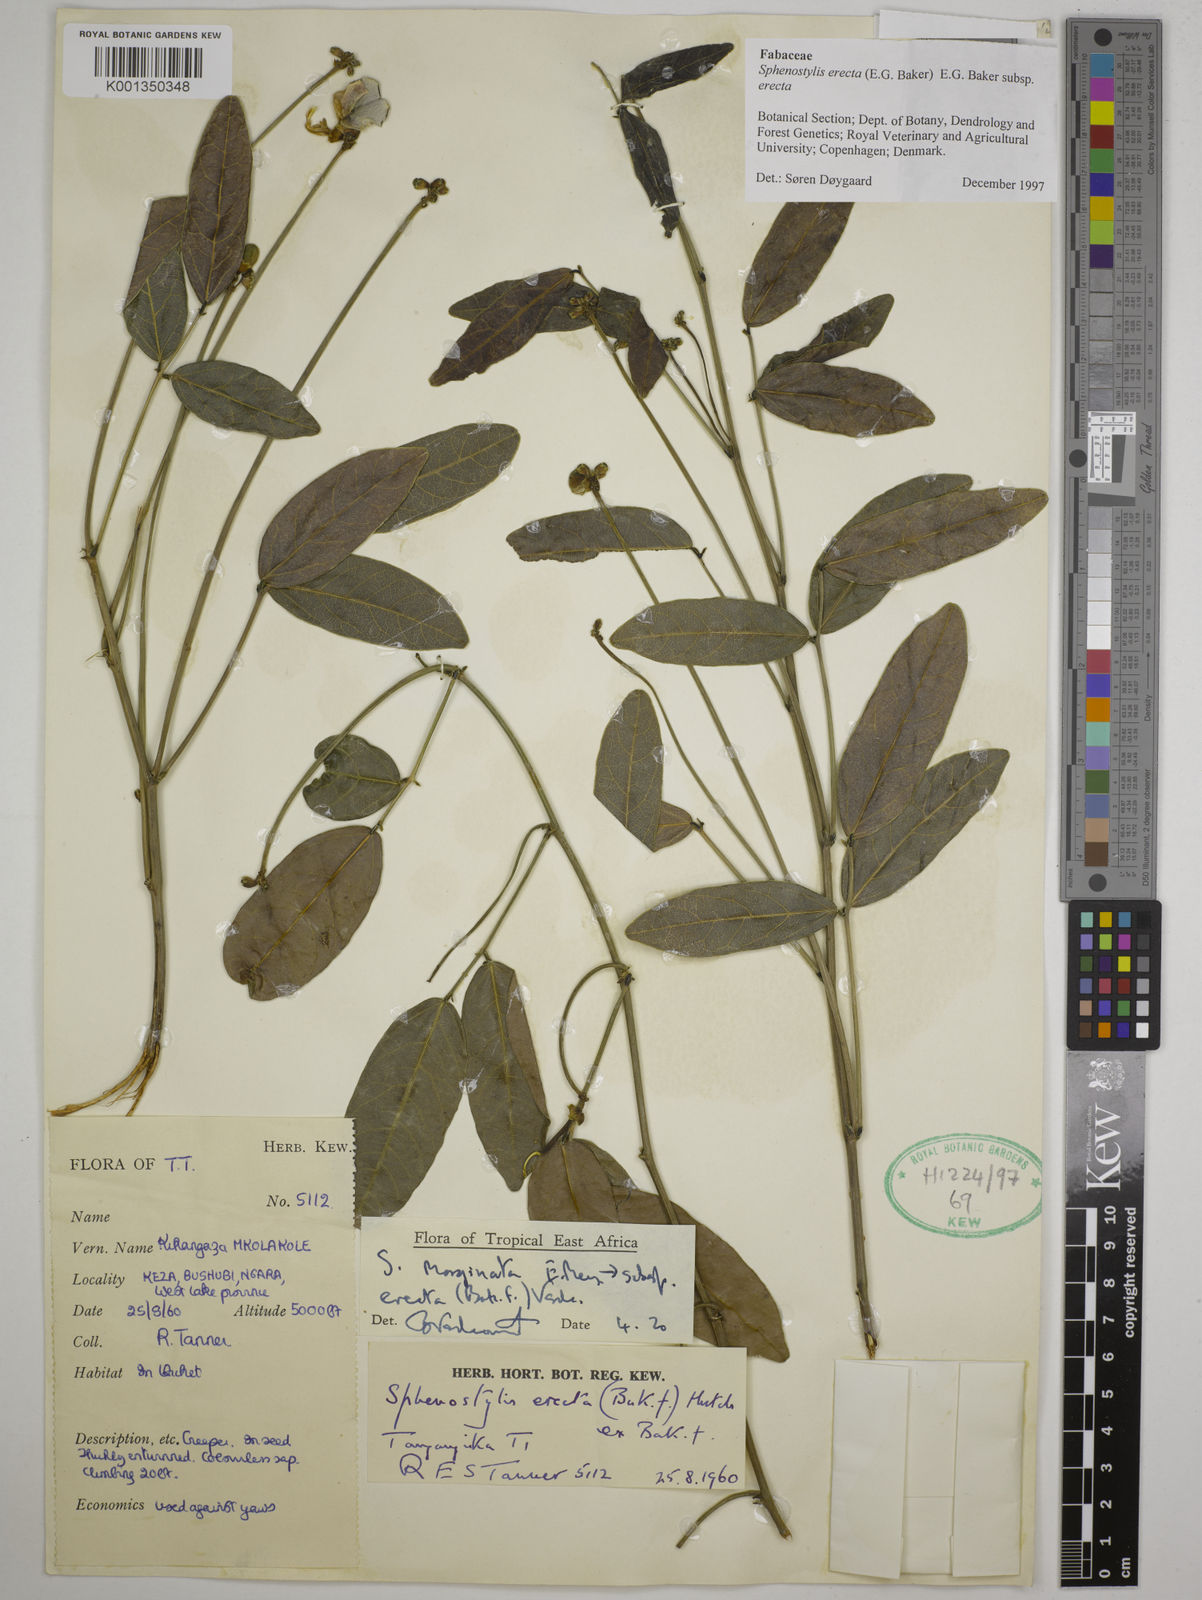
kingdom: Plantae
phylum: Tracheophyta
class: Magnoliopsida
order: Fabales
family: Fabaceae
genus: Sphenostylis
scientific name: Sphenostylis erecta
